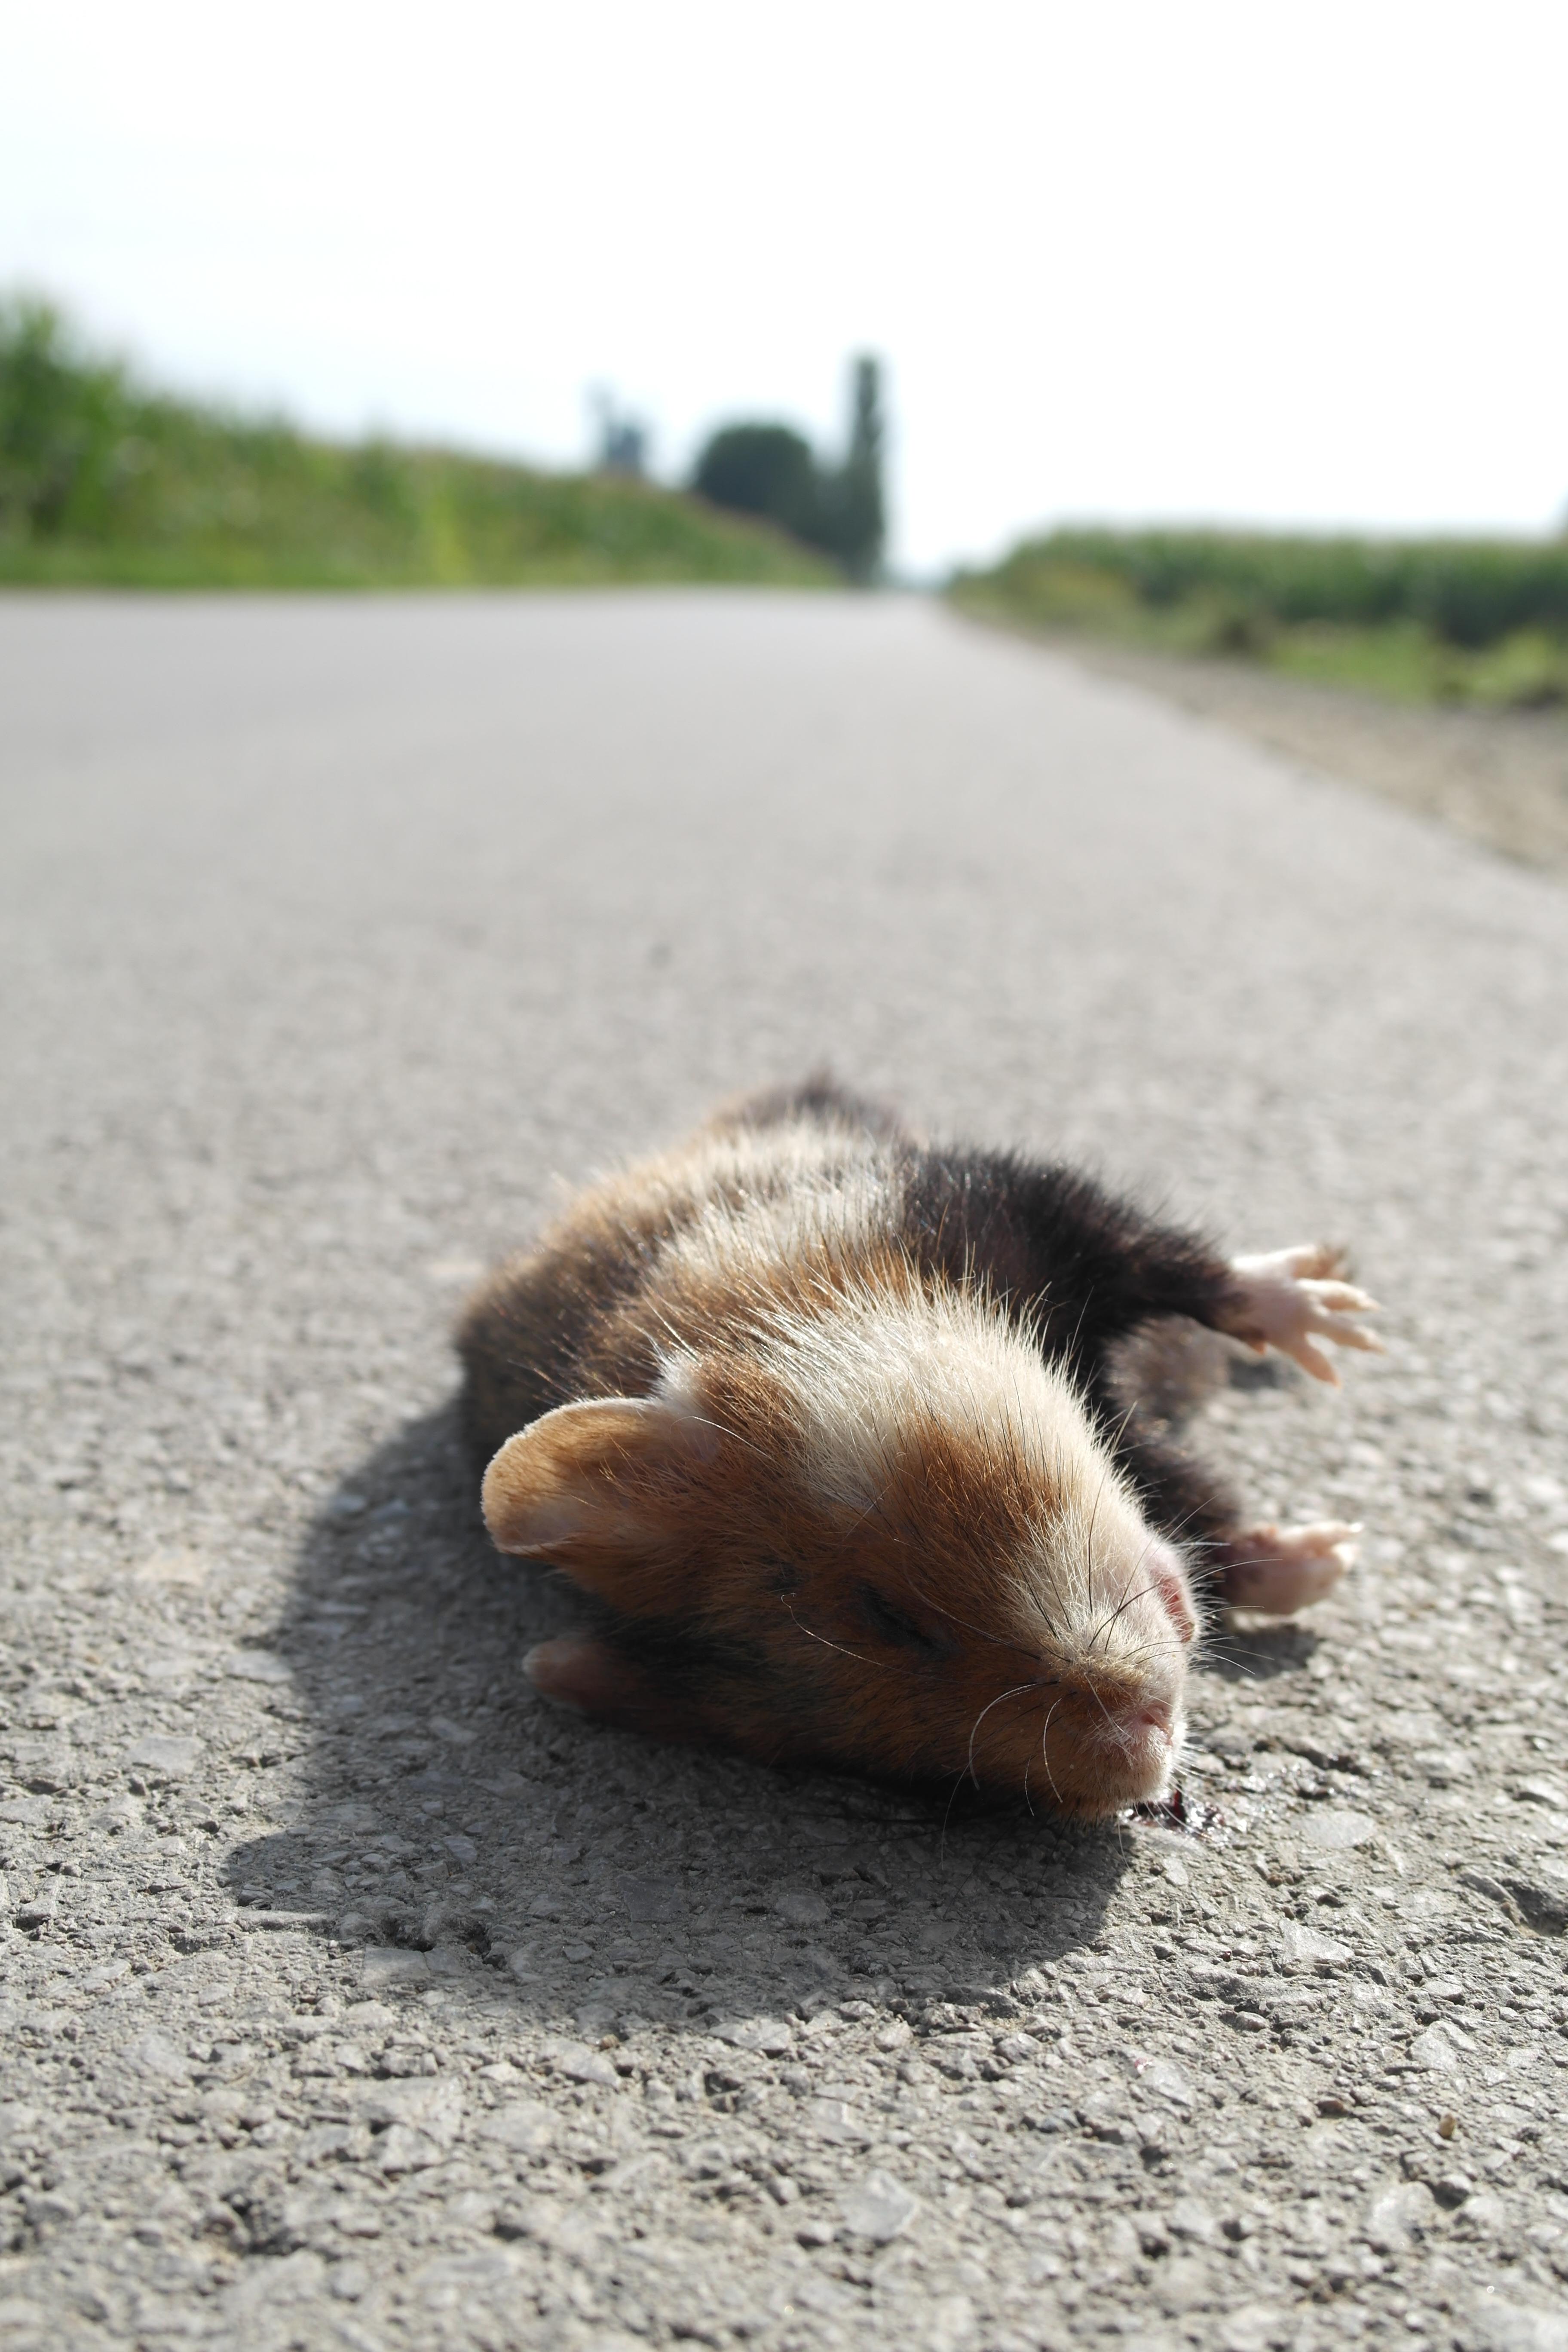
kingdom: Animalia
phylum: Chordata
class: Mammalia
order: Rodentia
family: Cricetidae
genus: Cricetus
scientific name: Cricetus cricetus
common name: Common hamster
